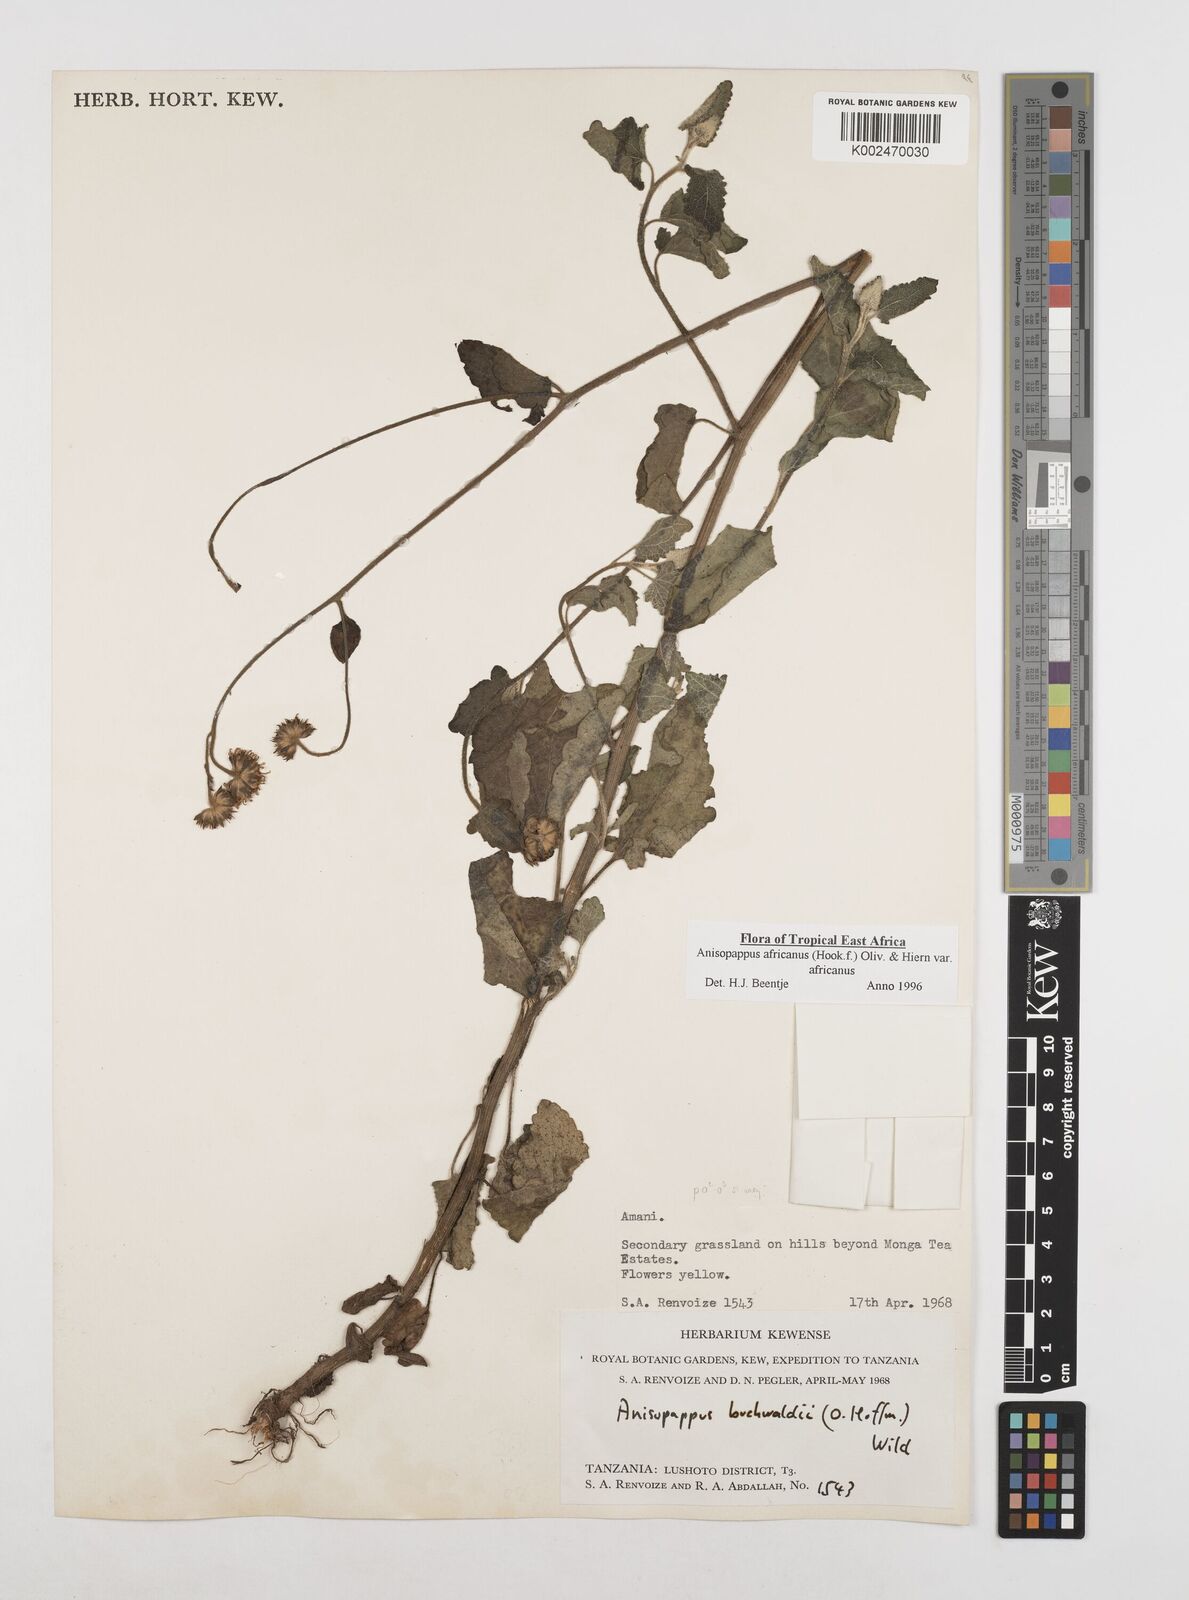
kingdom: Plantae
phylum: Tracheophyta
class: Magnoliopsida
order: Asterales
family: Asteraceae
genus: Anisopappus
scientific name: Anisopappus buchwaldii
